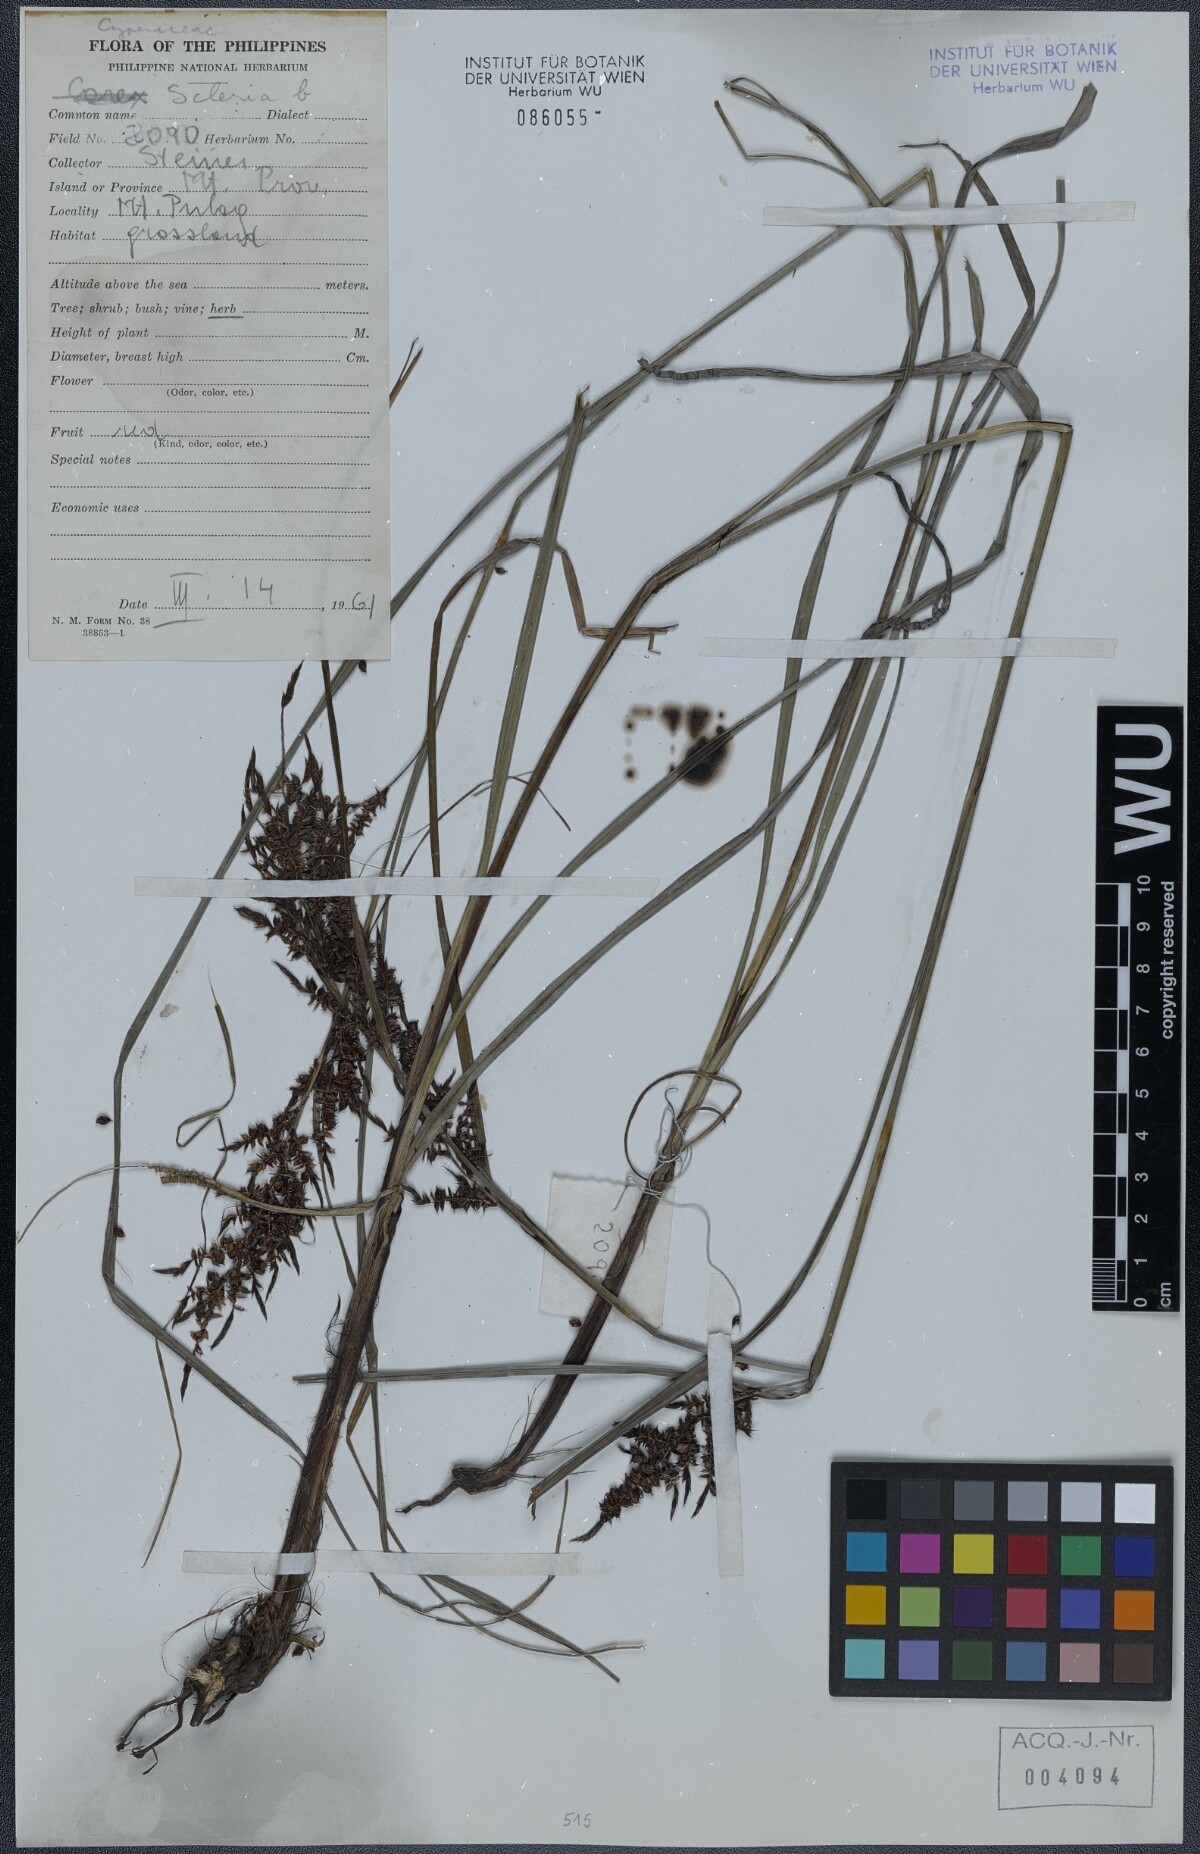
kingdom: Plantae
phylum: Tracheophyta
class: Liliopsida
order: Poales
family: Cyperaceae
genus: Scleria
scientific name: Scleria
